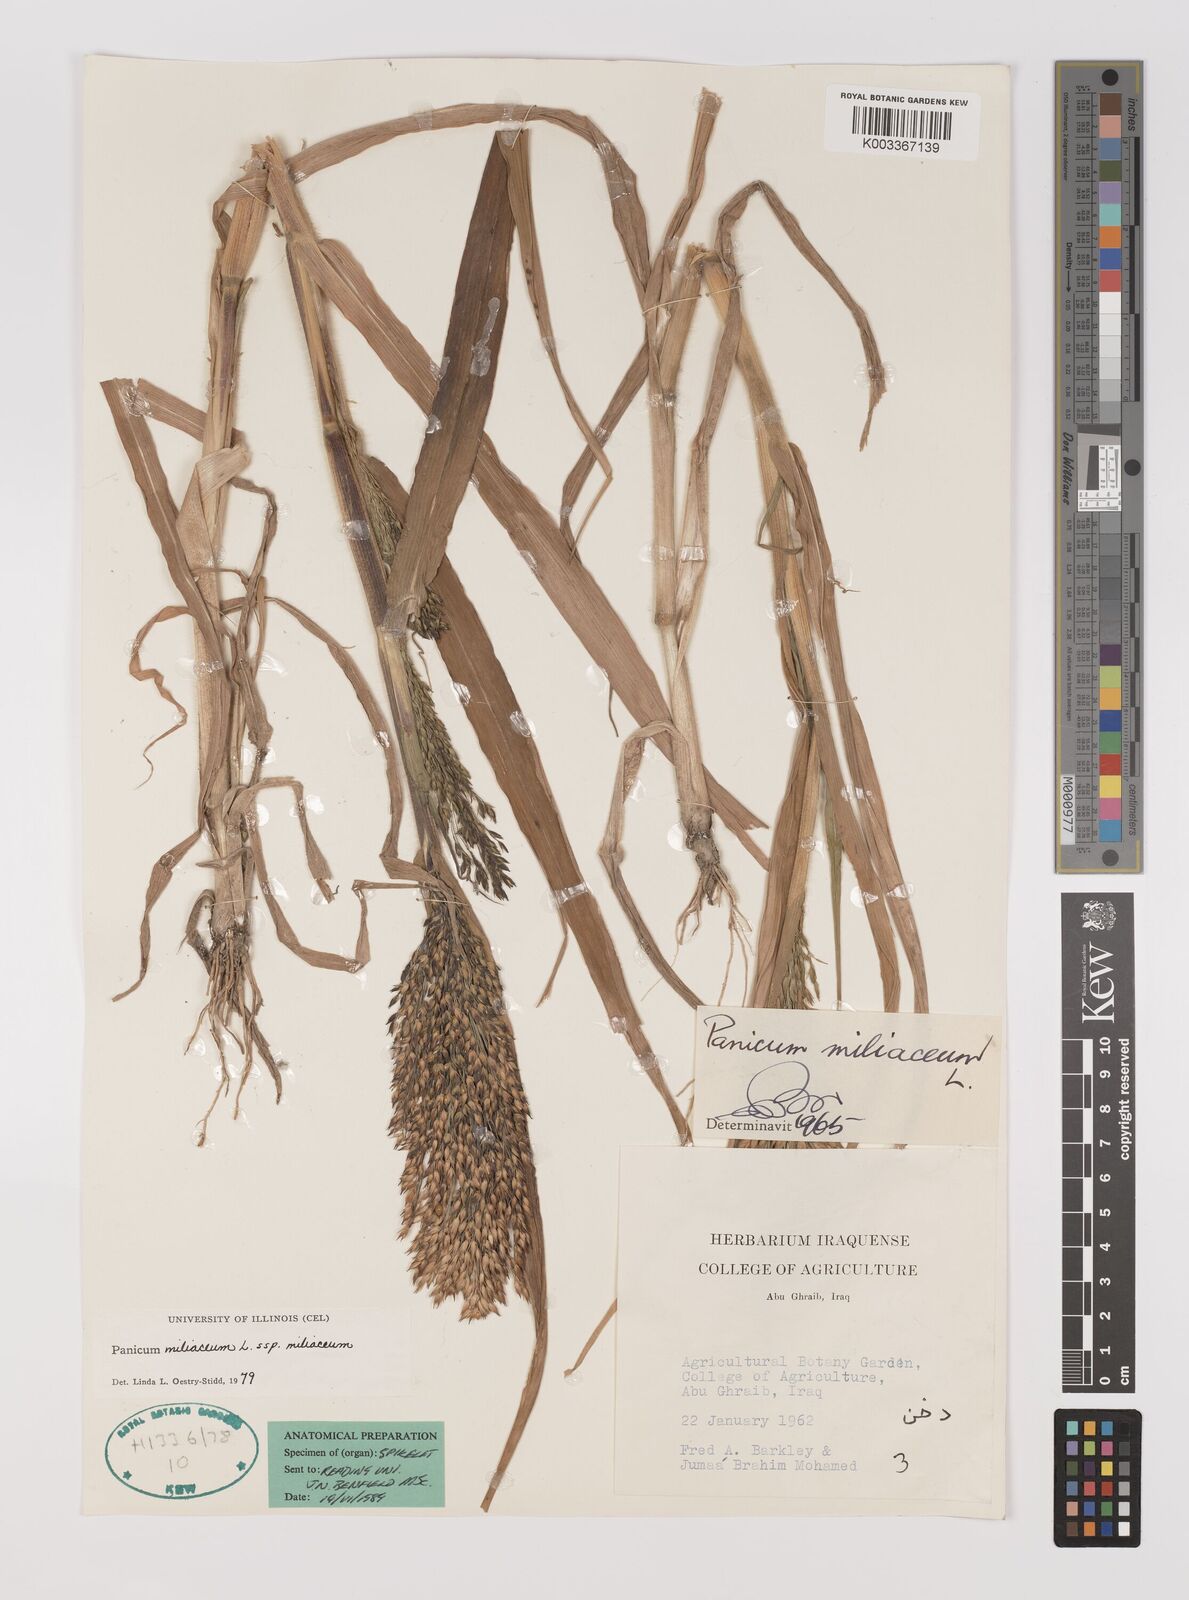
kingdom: Plantae
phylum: Tracheophyta
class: Liliopsida
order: Poales
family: Poaceae
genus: Panicum
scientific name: Panicum miliaceum
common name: Common millet
